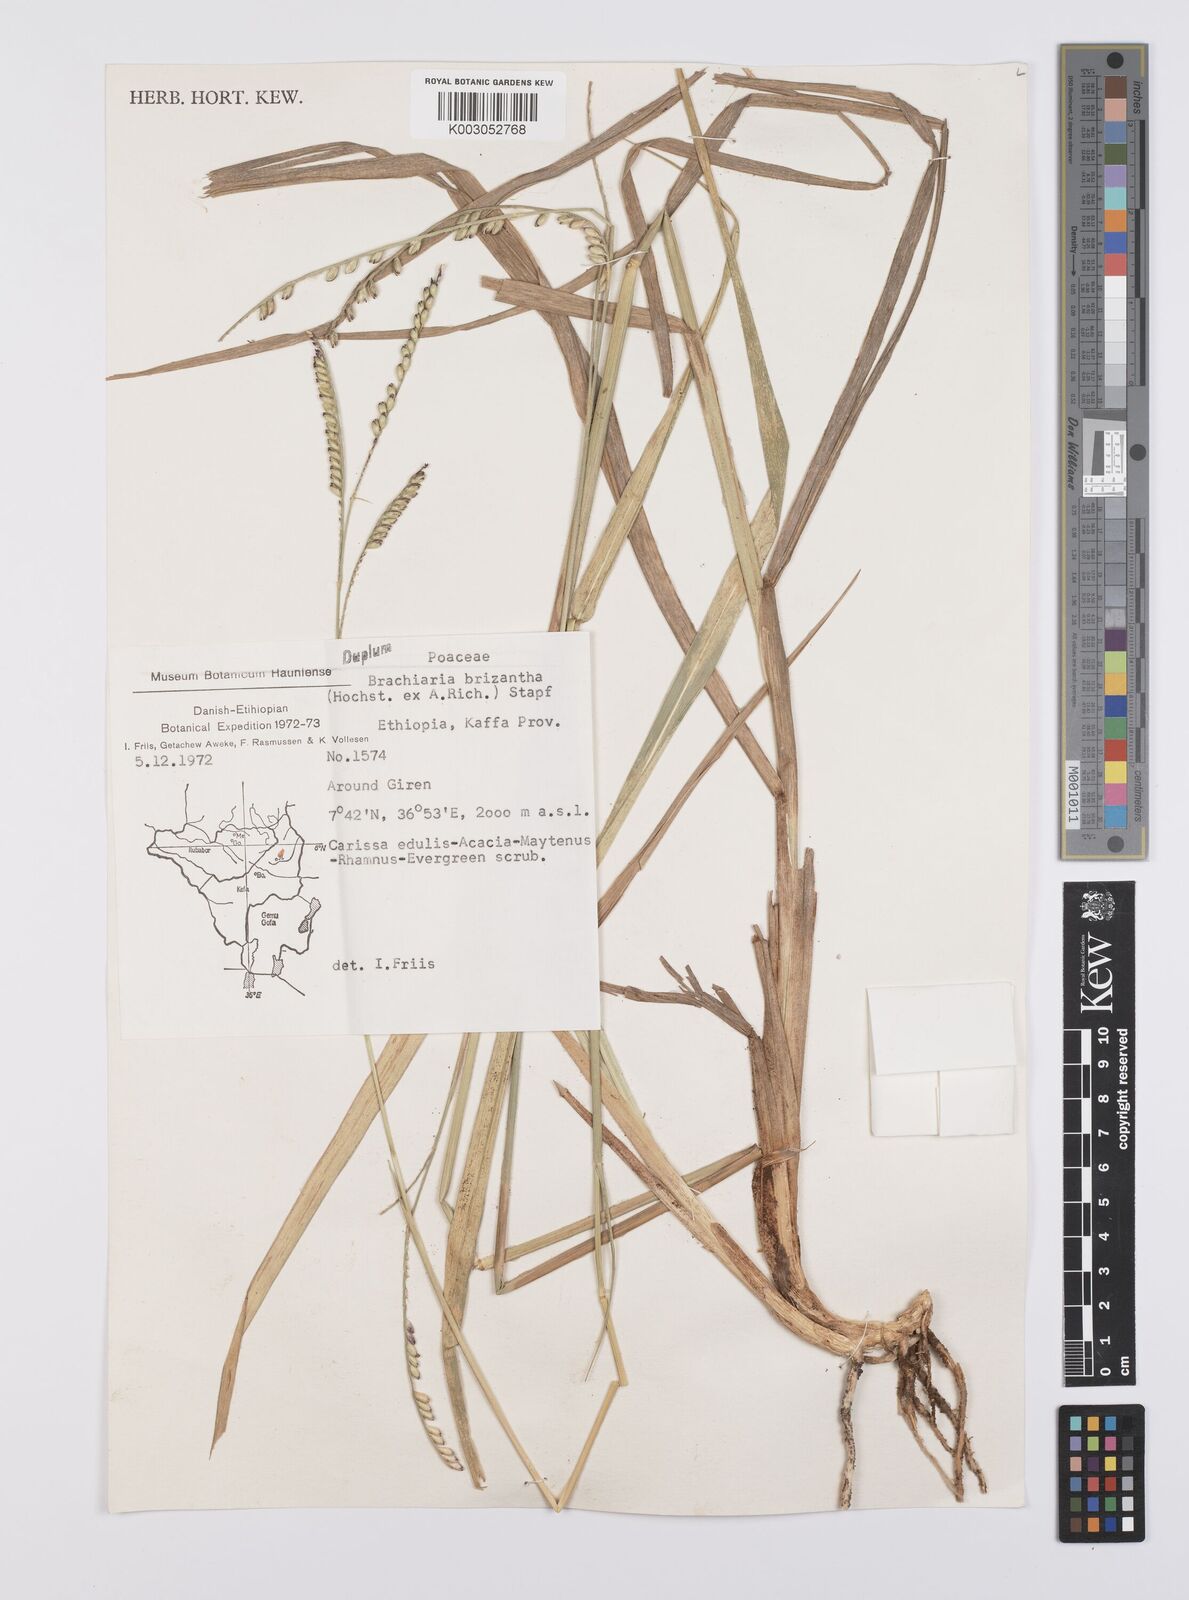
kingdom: Plantae
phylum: Tracheophyta
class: Liliopsida
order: Poales
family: Poaceae
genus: Urochloa
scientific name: Urochloa brizantha
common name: Palisade signalgrass
